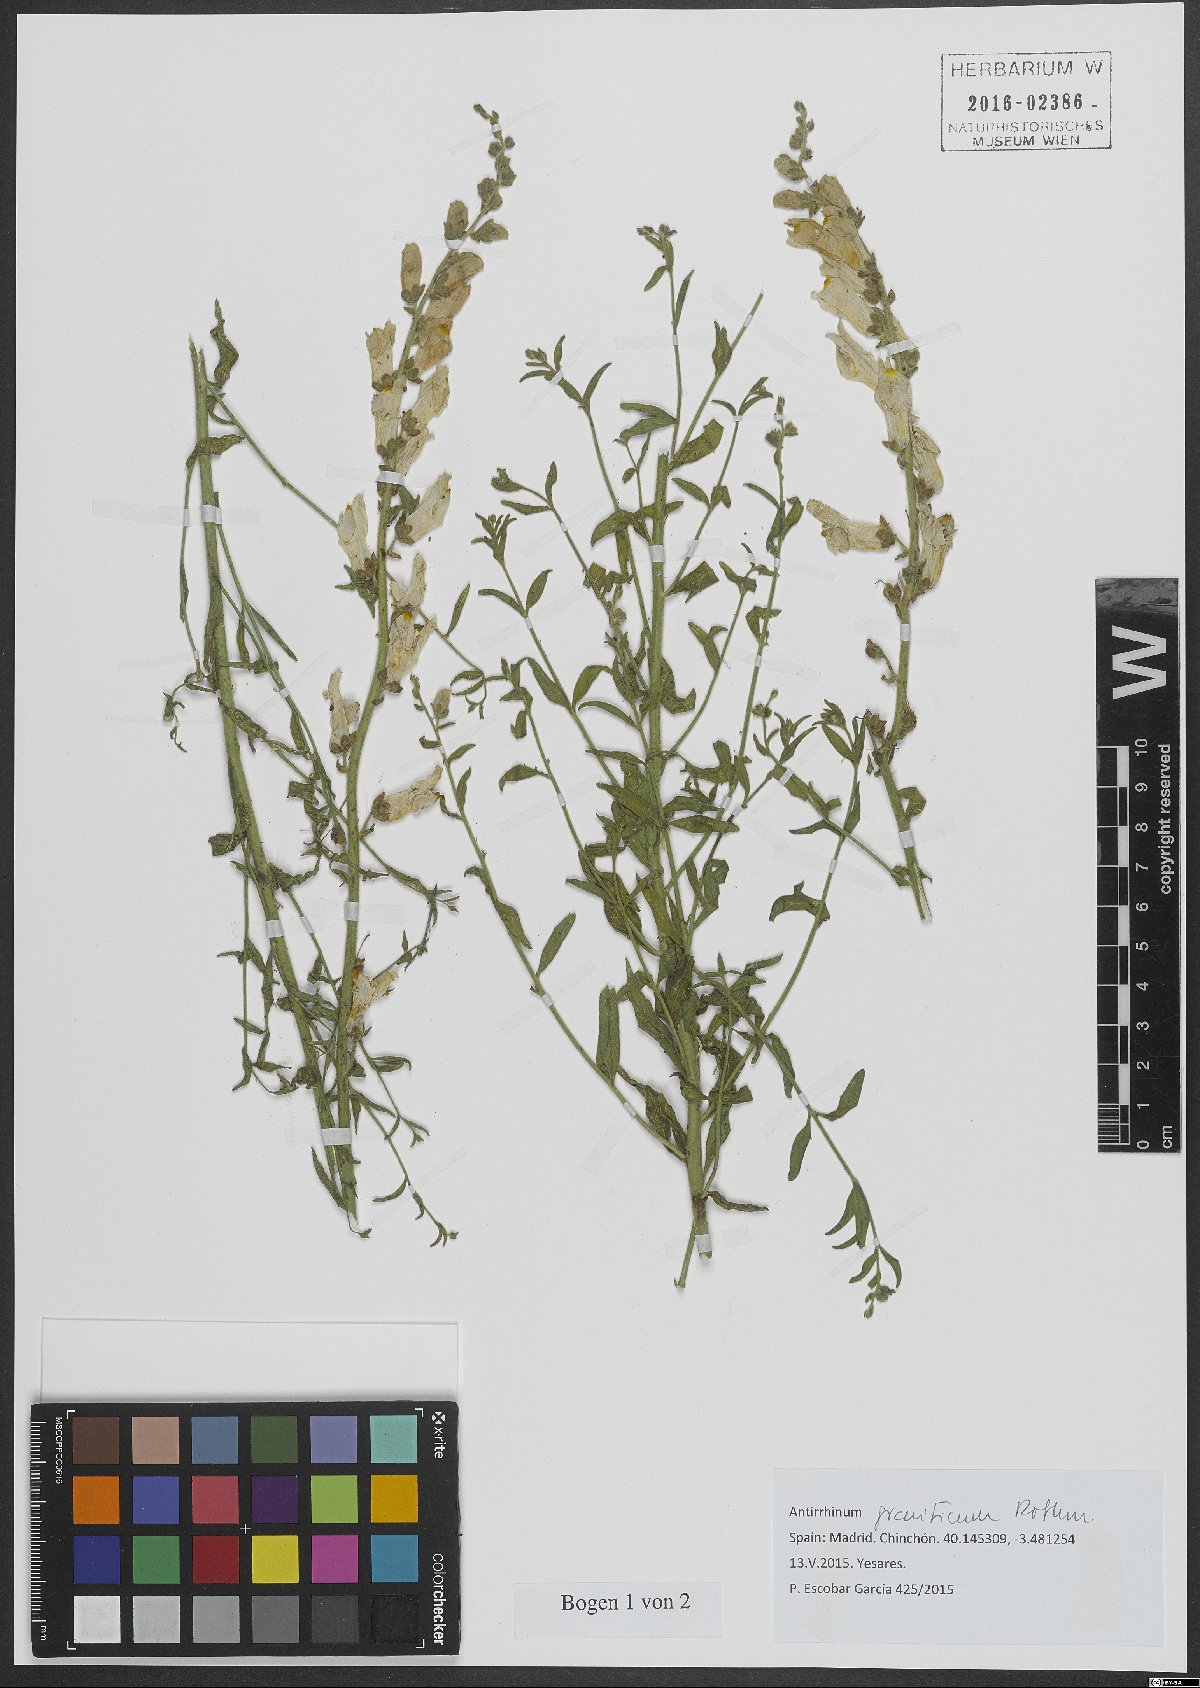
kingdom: Plantae
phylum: Tracheophyta
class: Magnoliopsida
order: Lamiales
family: Plantaginaceae
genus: Antirrhinum
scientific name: Antirrhinum graniticum
